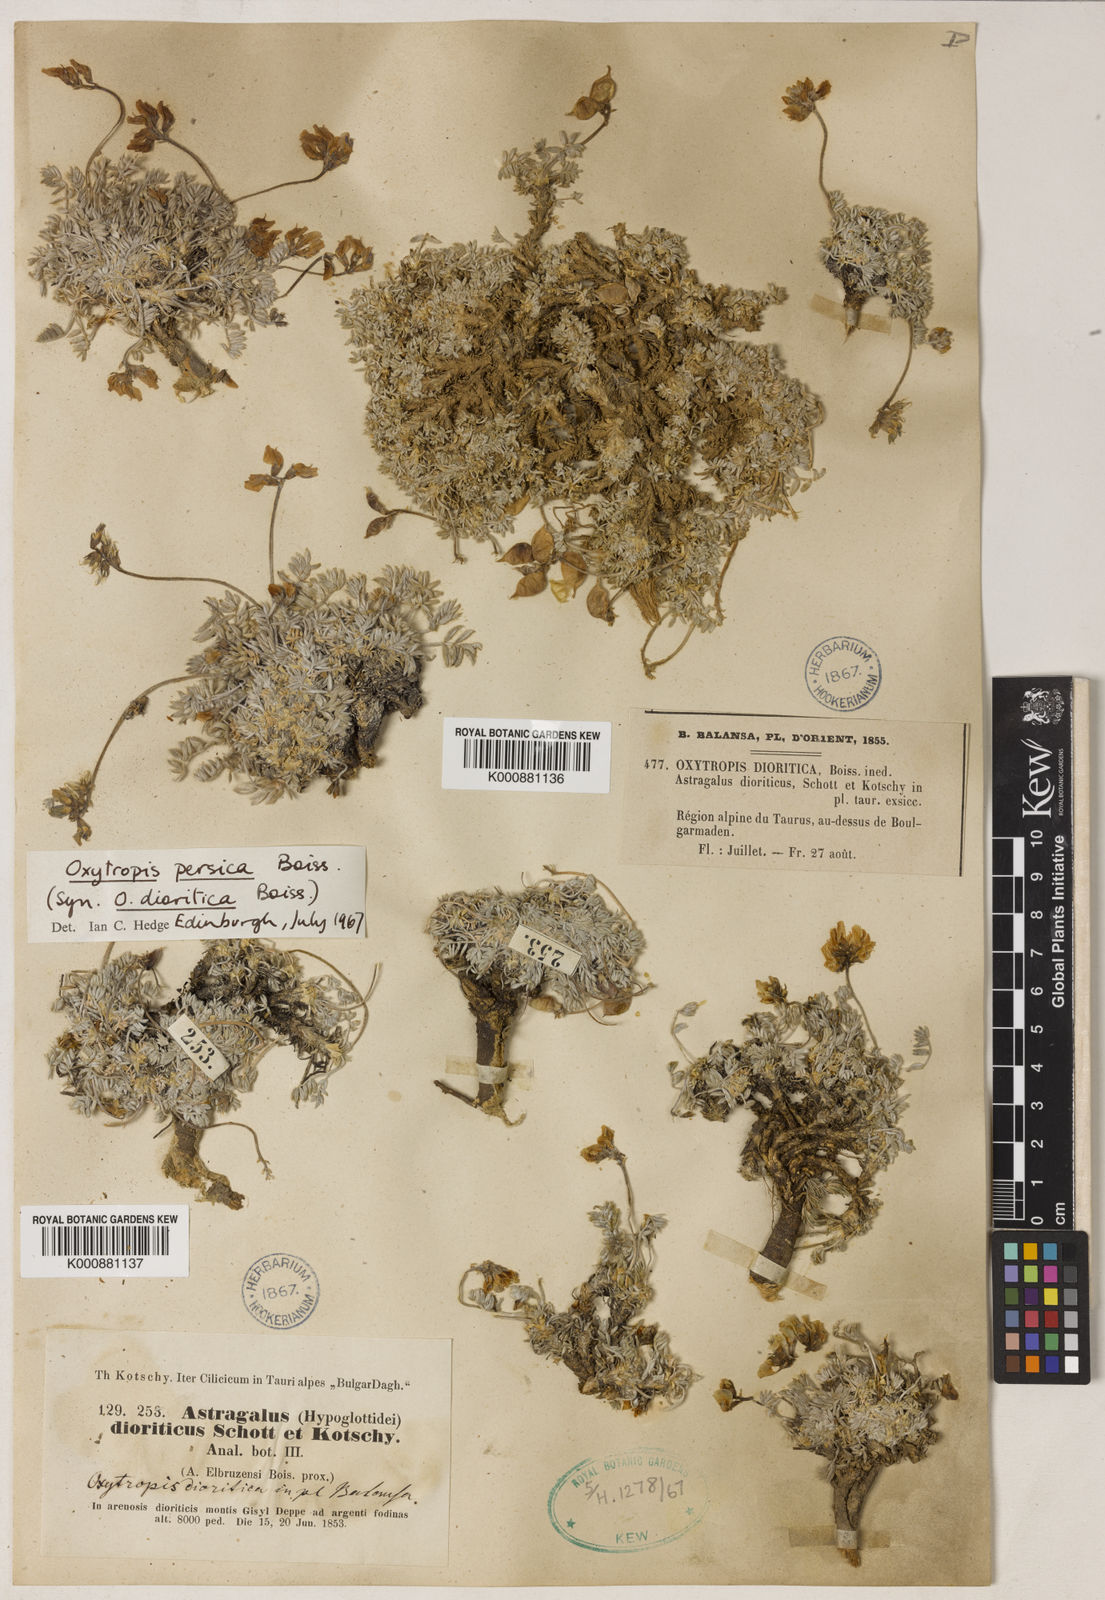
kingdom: Plantae
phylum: Tracheophyta
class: Magnoliopsida
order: Fabales
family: Fabaceae
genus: Oxytropis
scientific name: Oxytropis persica
